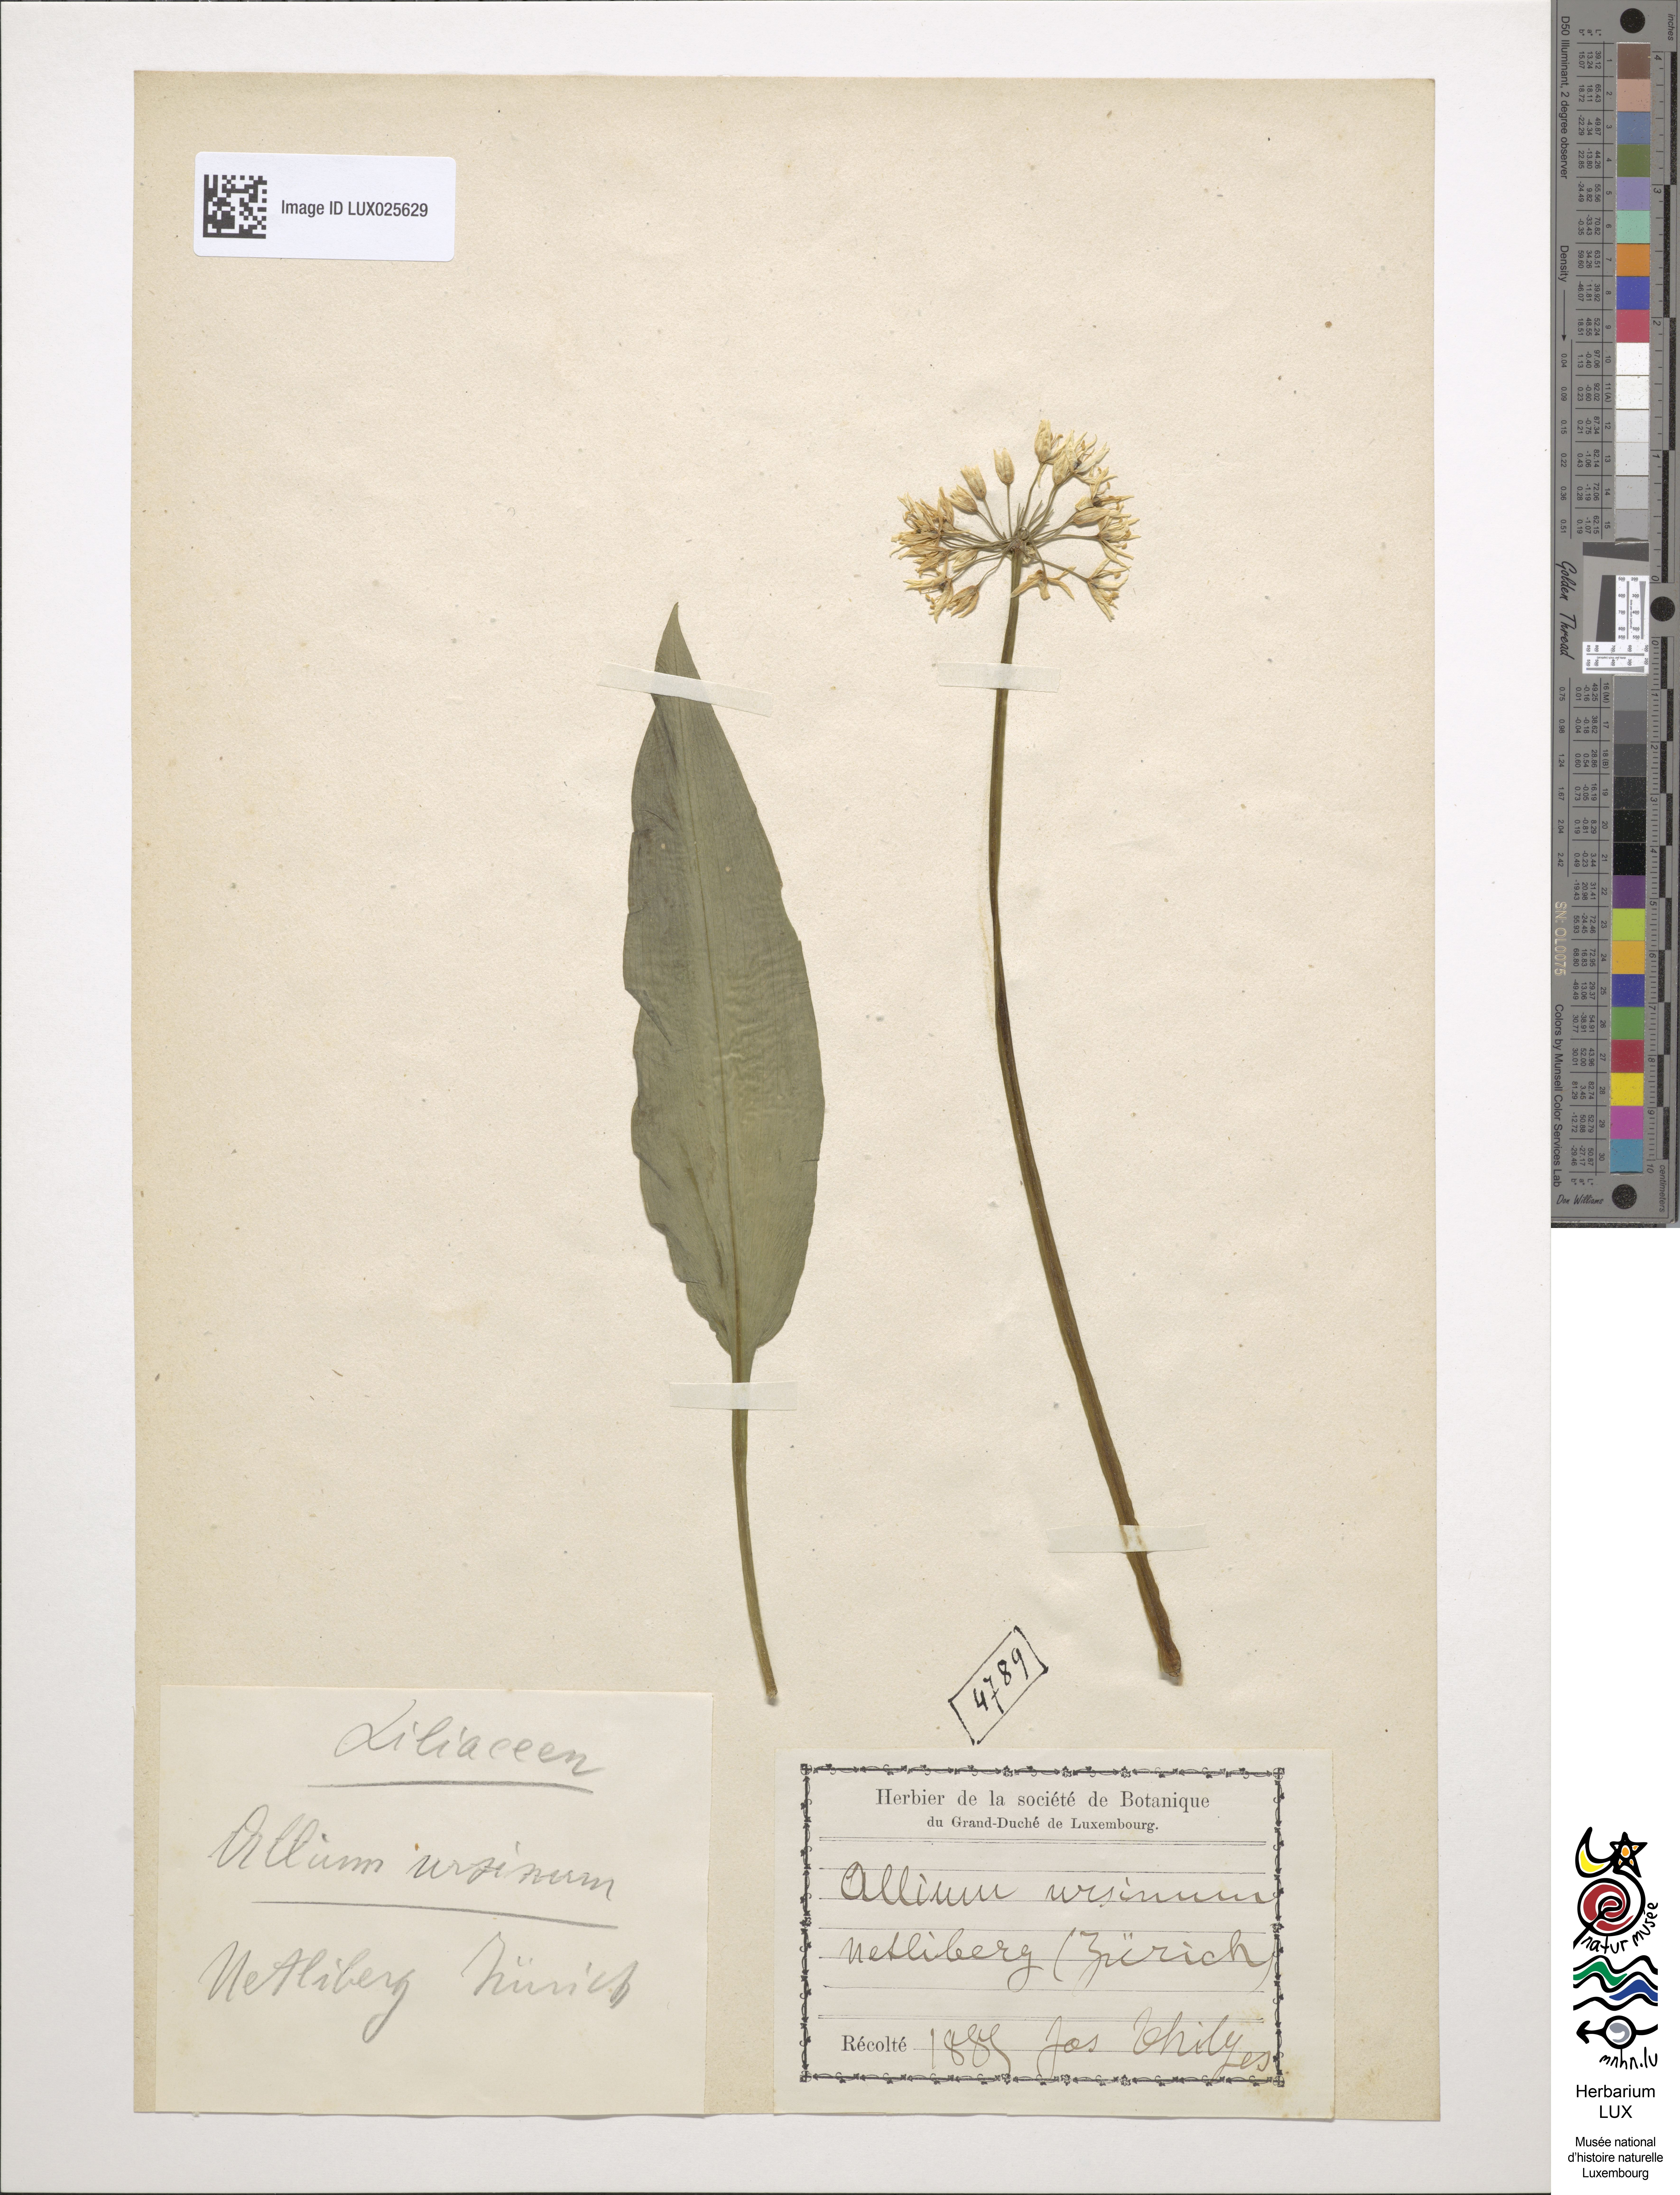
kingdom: Plantae
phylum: Tracheophyta
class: Liliopsida
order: Asparagales
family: Amaryllidaceae
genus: Allium
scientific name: Allium ursinum
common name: Ramsons
